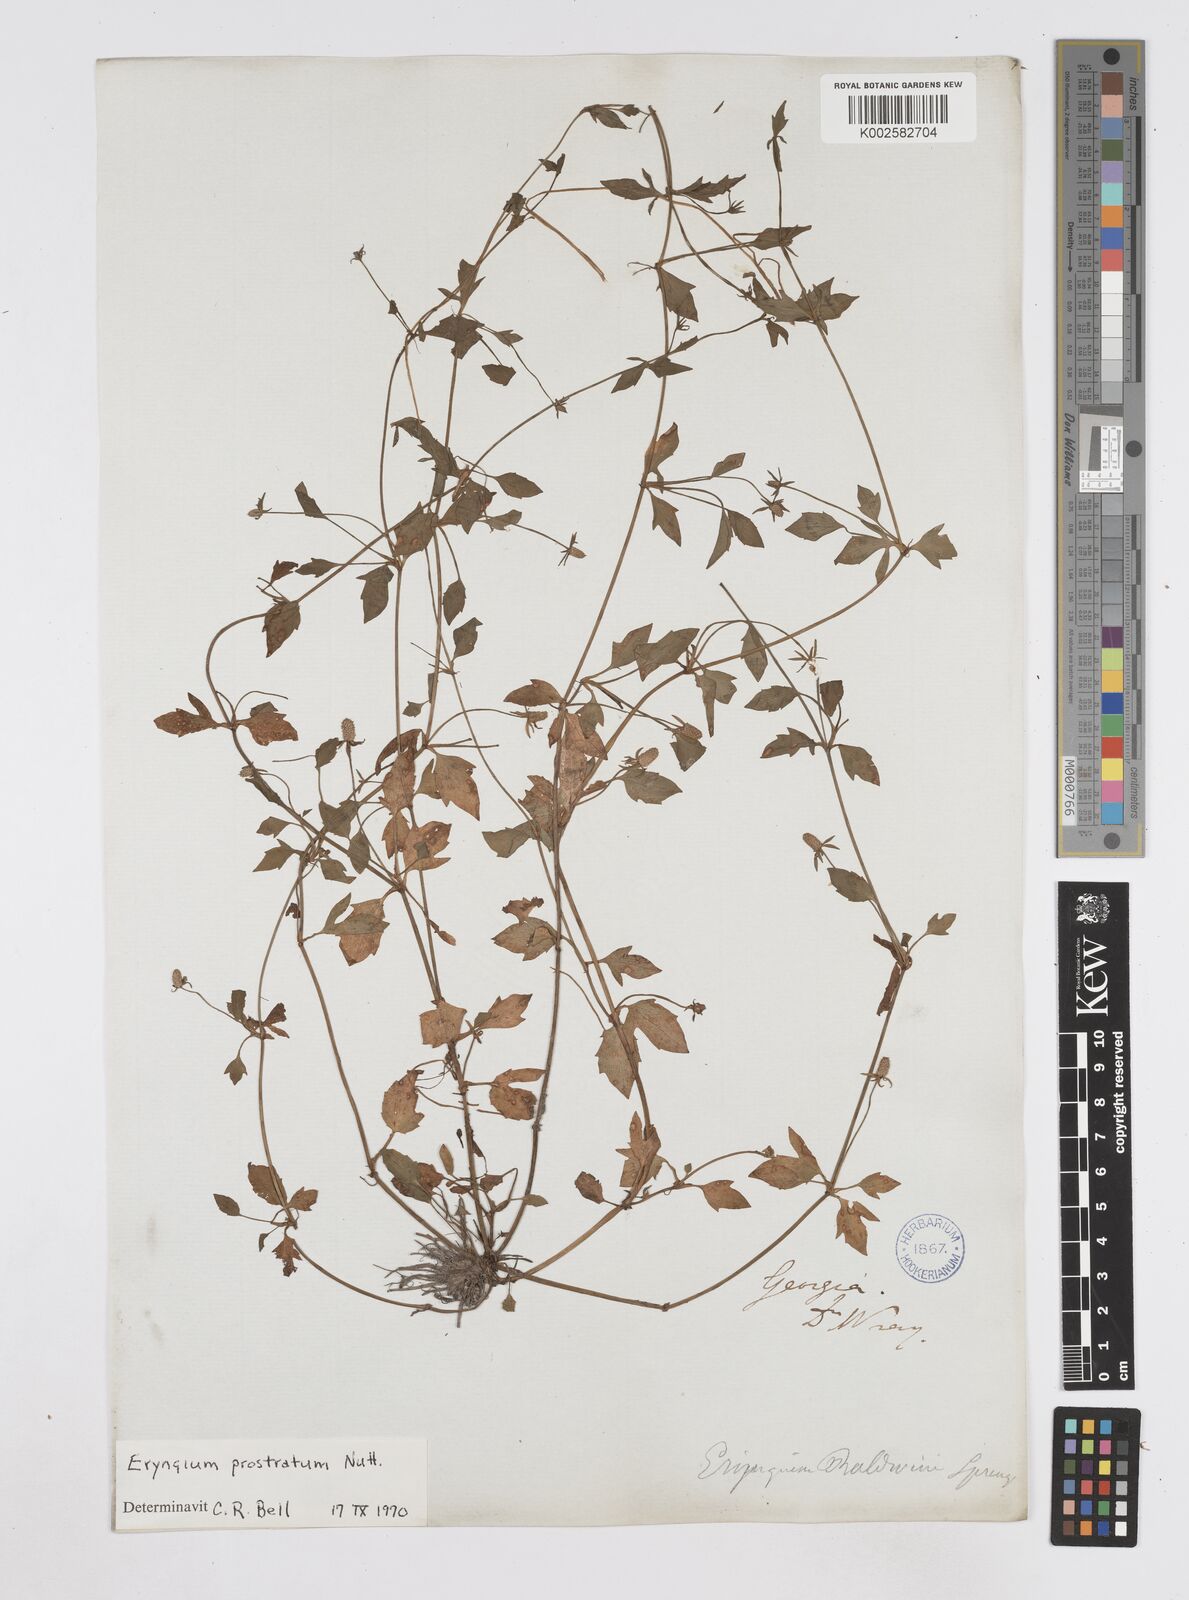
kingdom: Plantae
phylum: Tracheophyta
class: Magnoliopsida
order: Apiales
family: Apiaceae
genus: Eryngium
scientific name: Eryngium prostratum
